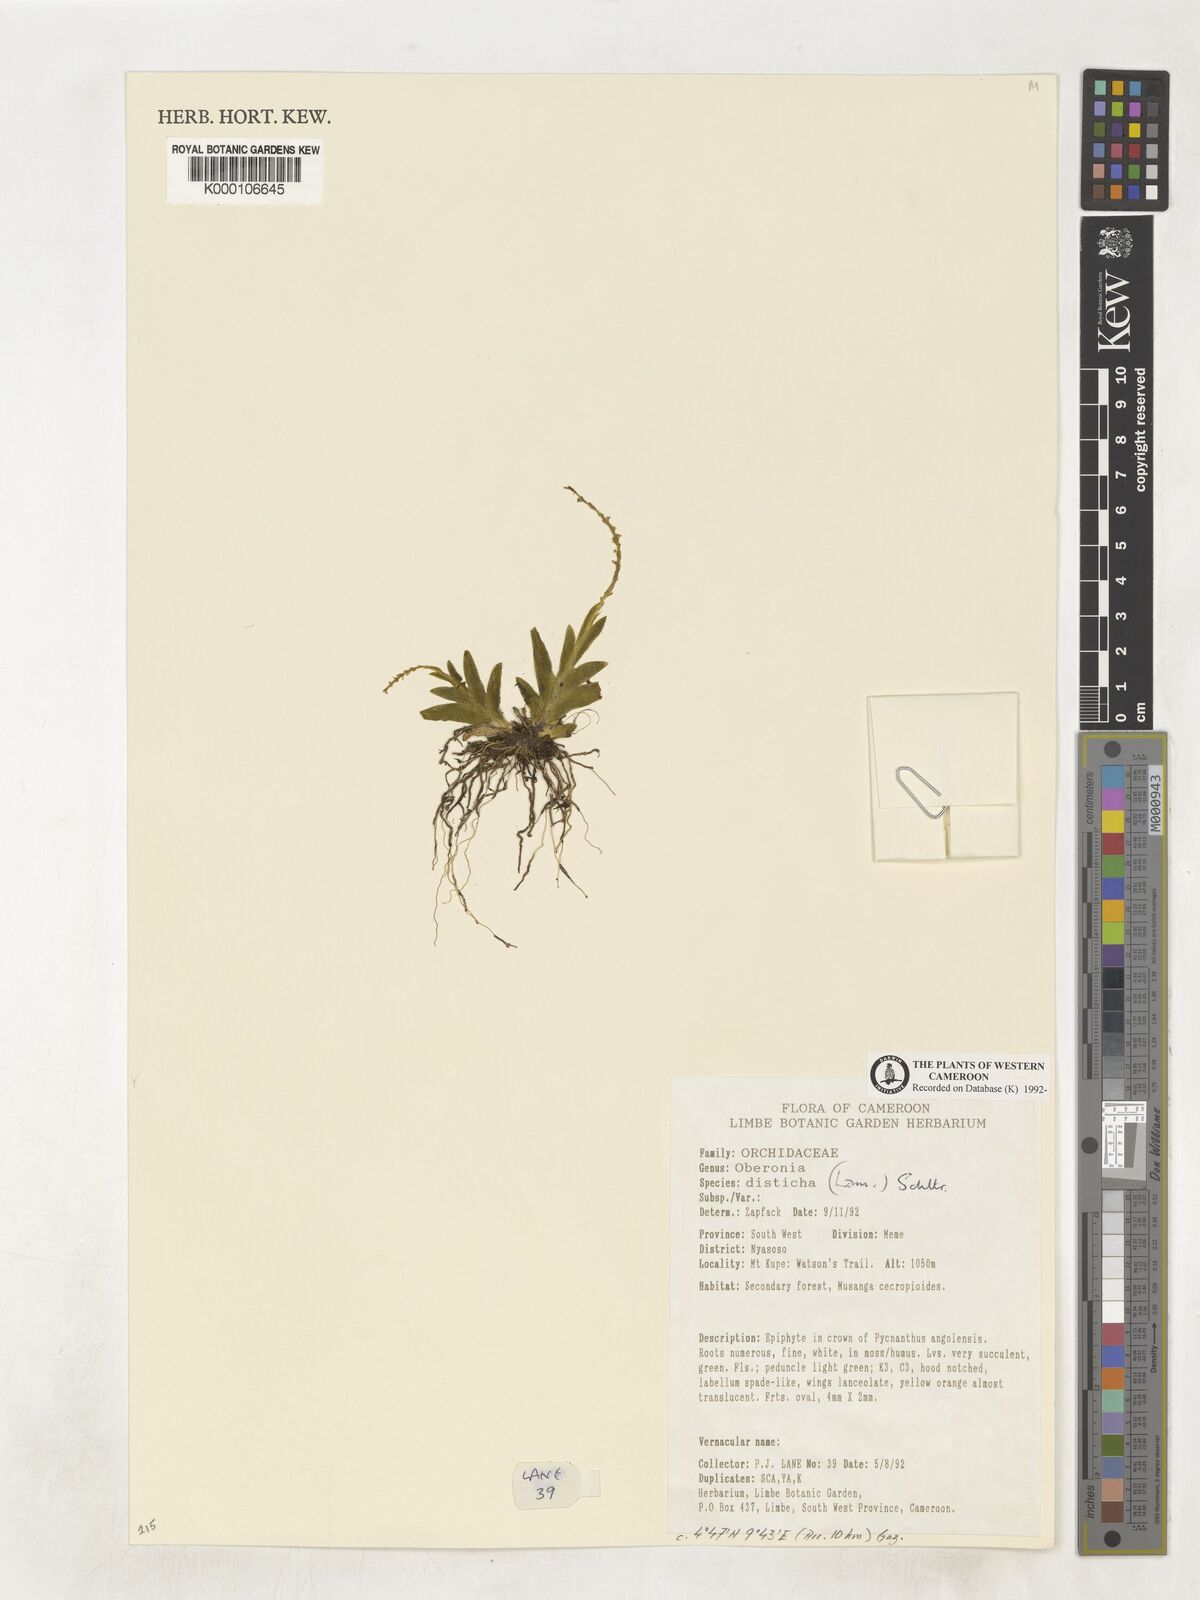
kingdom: Plantae
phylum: Tracheophyta
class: Liliopsida
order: Asparagales
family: Orchidaceae
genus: Oberonia
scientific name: Oberonia disticha
